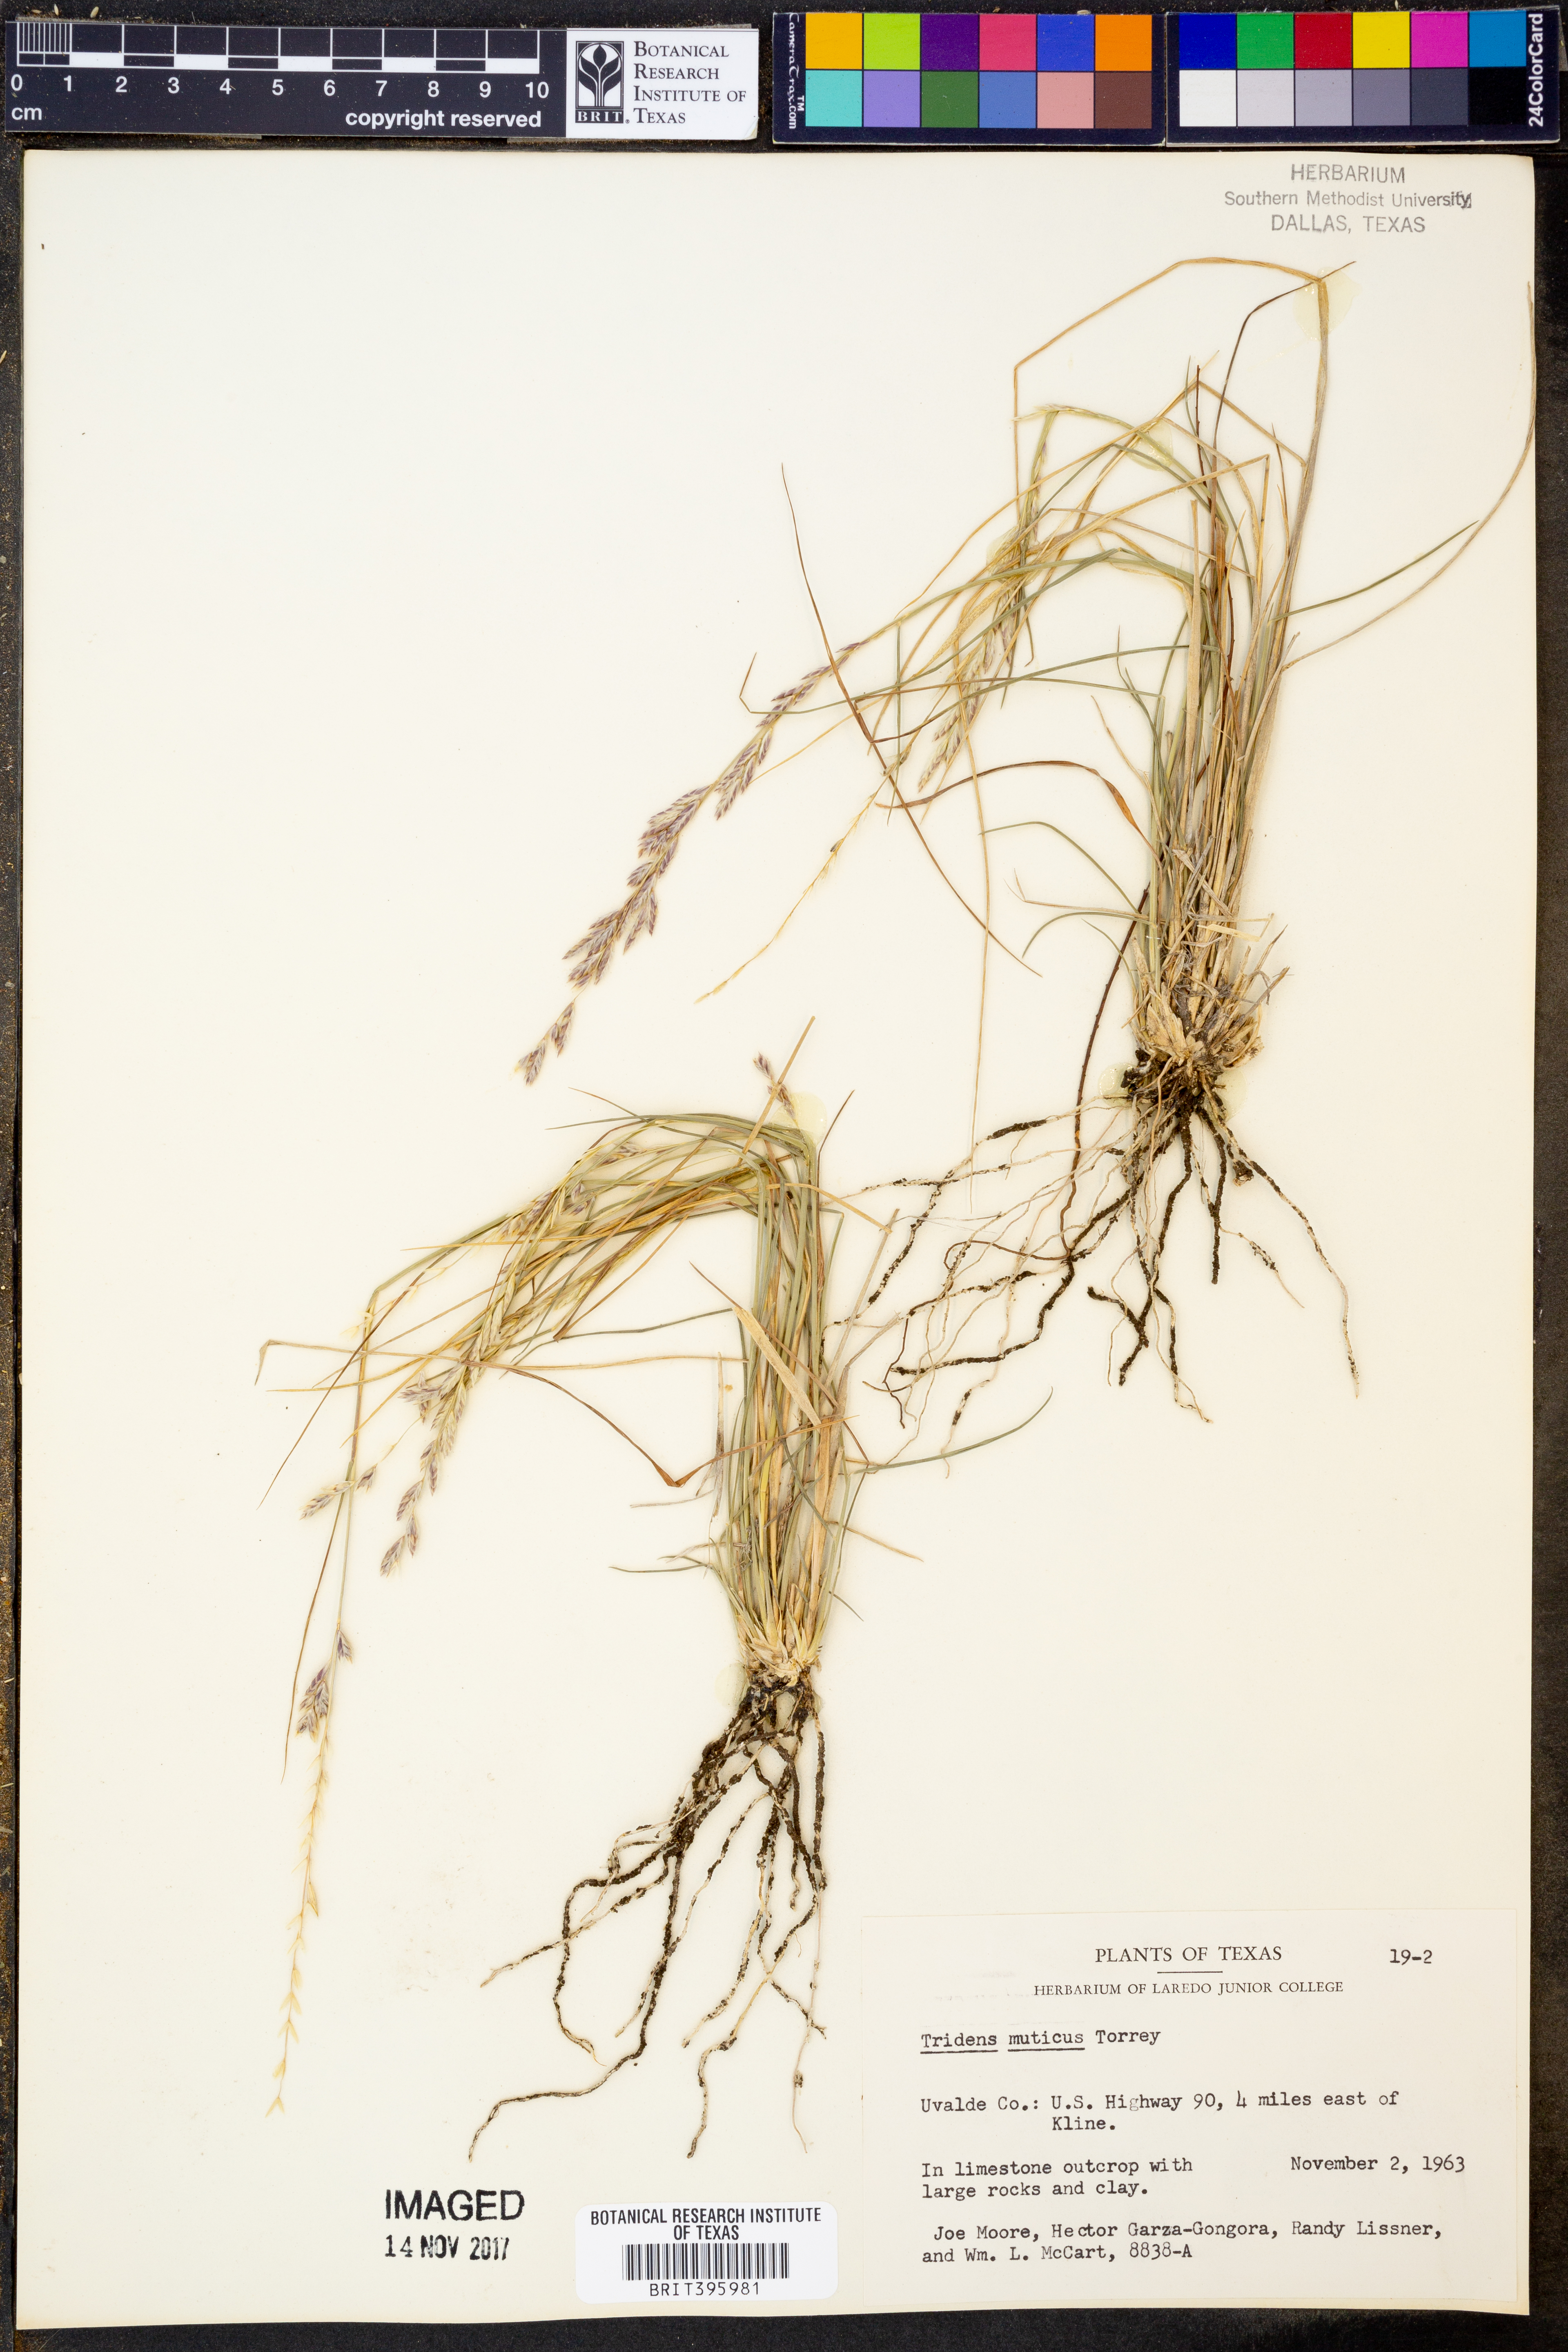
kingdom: Plantae
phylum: Tracheophyta
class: Liliopsida
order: Poales
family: Poaceae
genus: Tridentopsis
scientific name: Tridentopsis mutica
